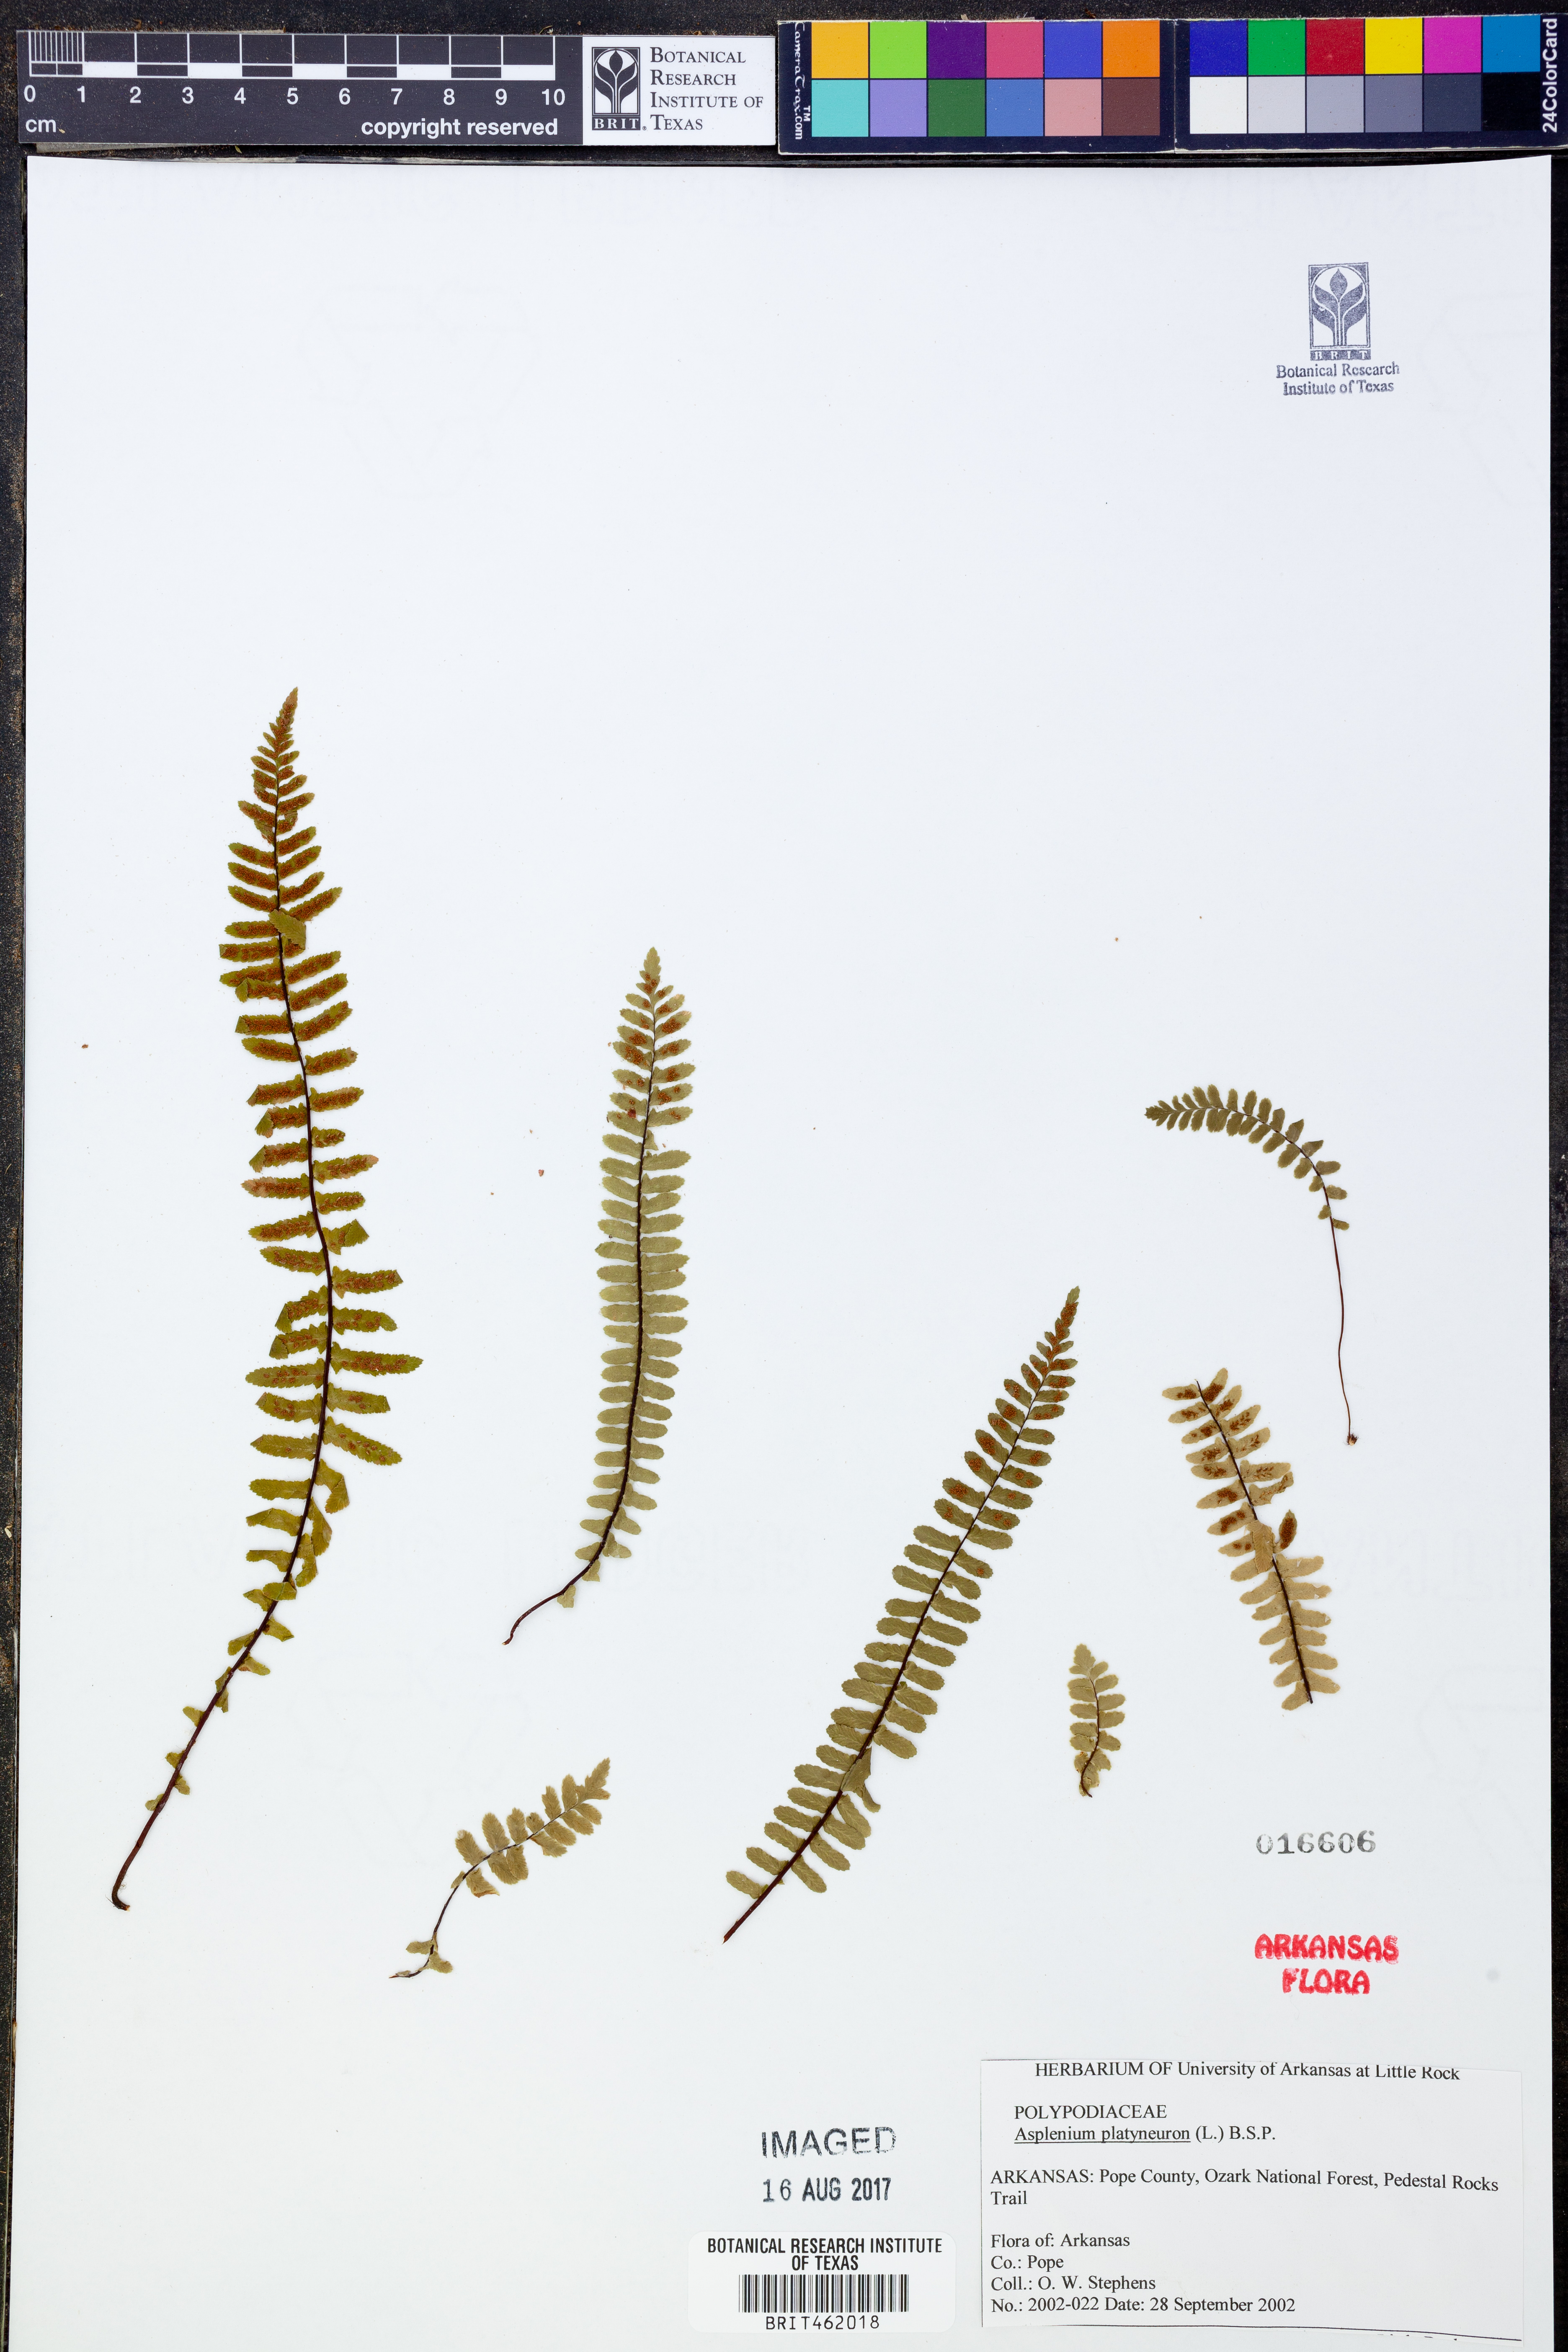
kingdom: Plantae
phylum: Tracheophyta
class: Polypodiopsida
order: Polypodiales
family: Aspleniaceae
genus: Asplenium
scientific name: Asplenium platyneuron
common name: Ebony spleenwort
